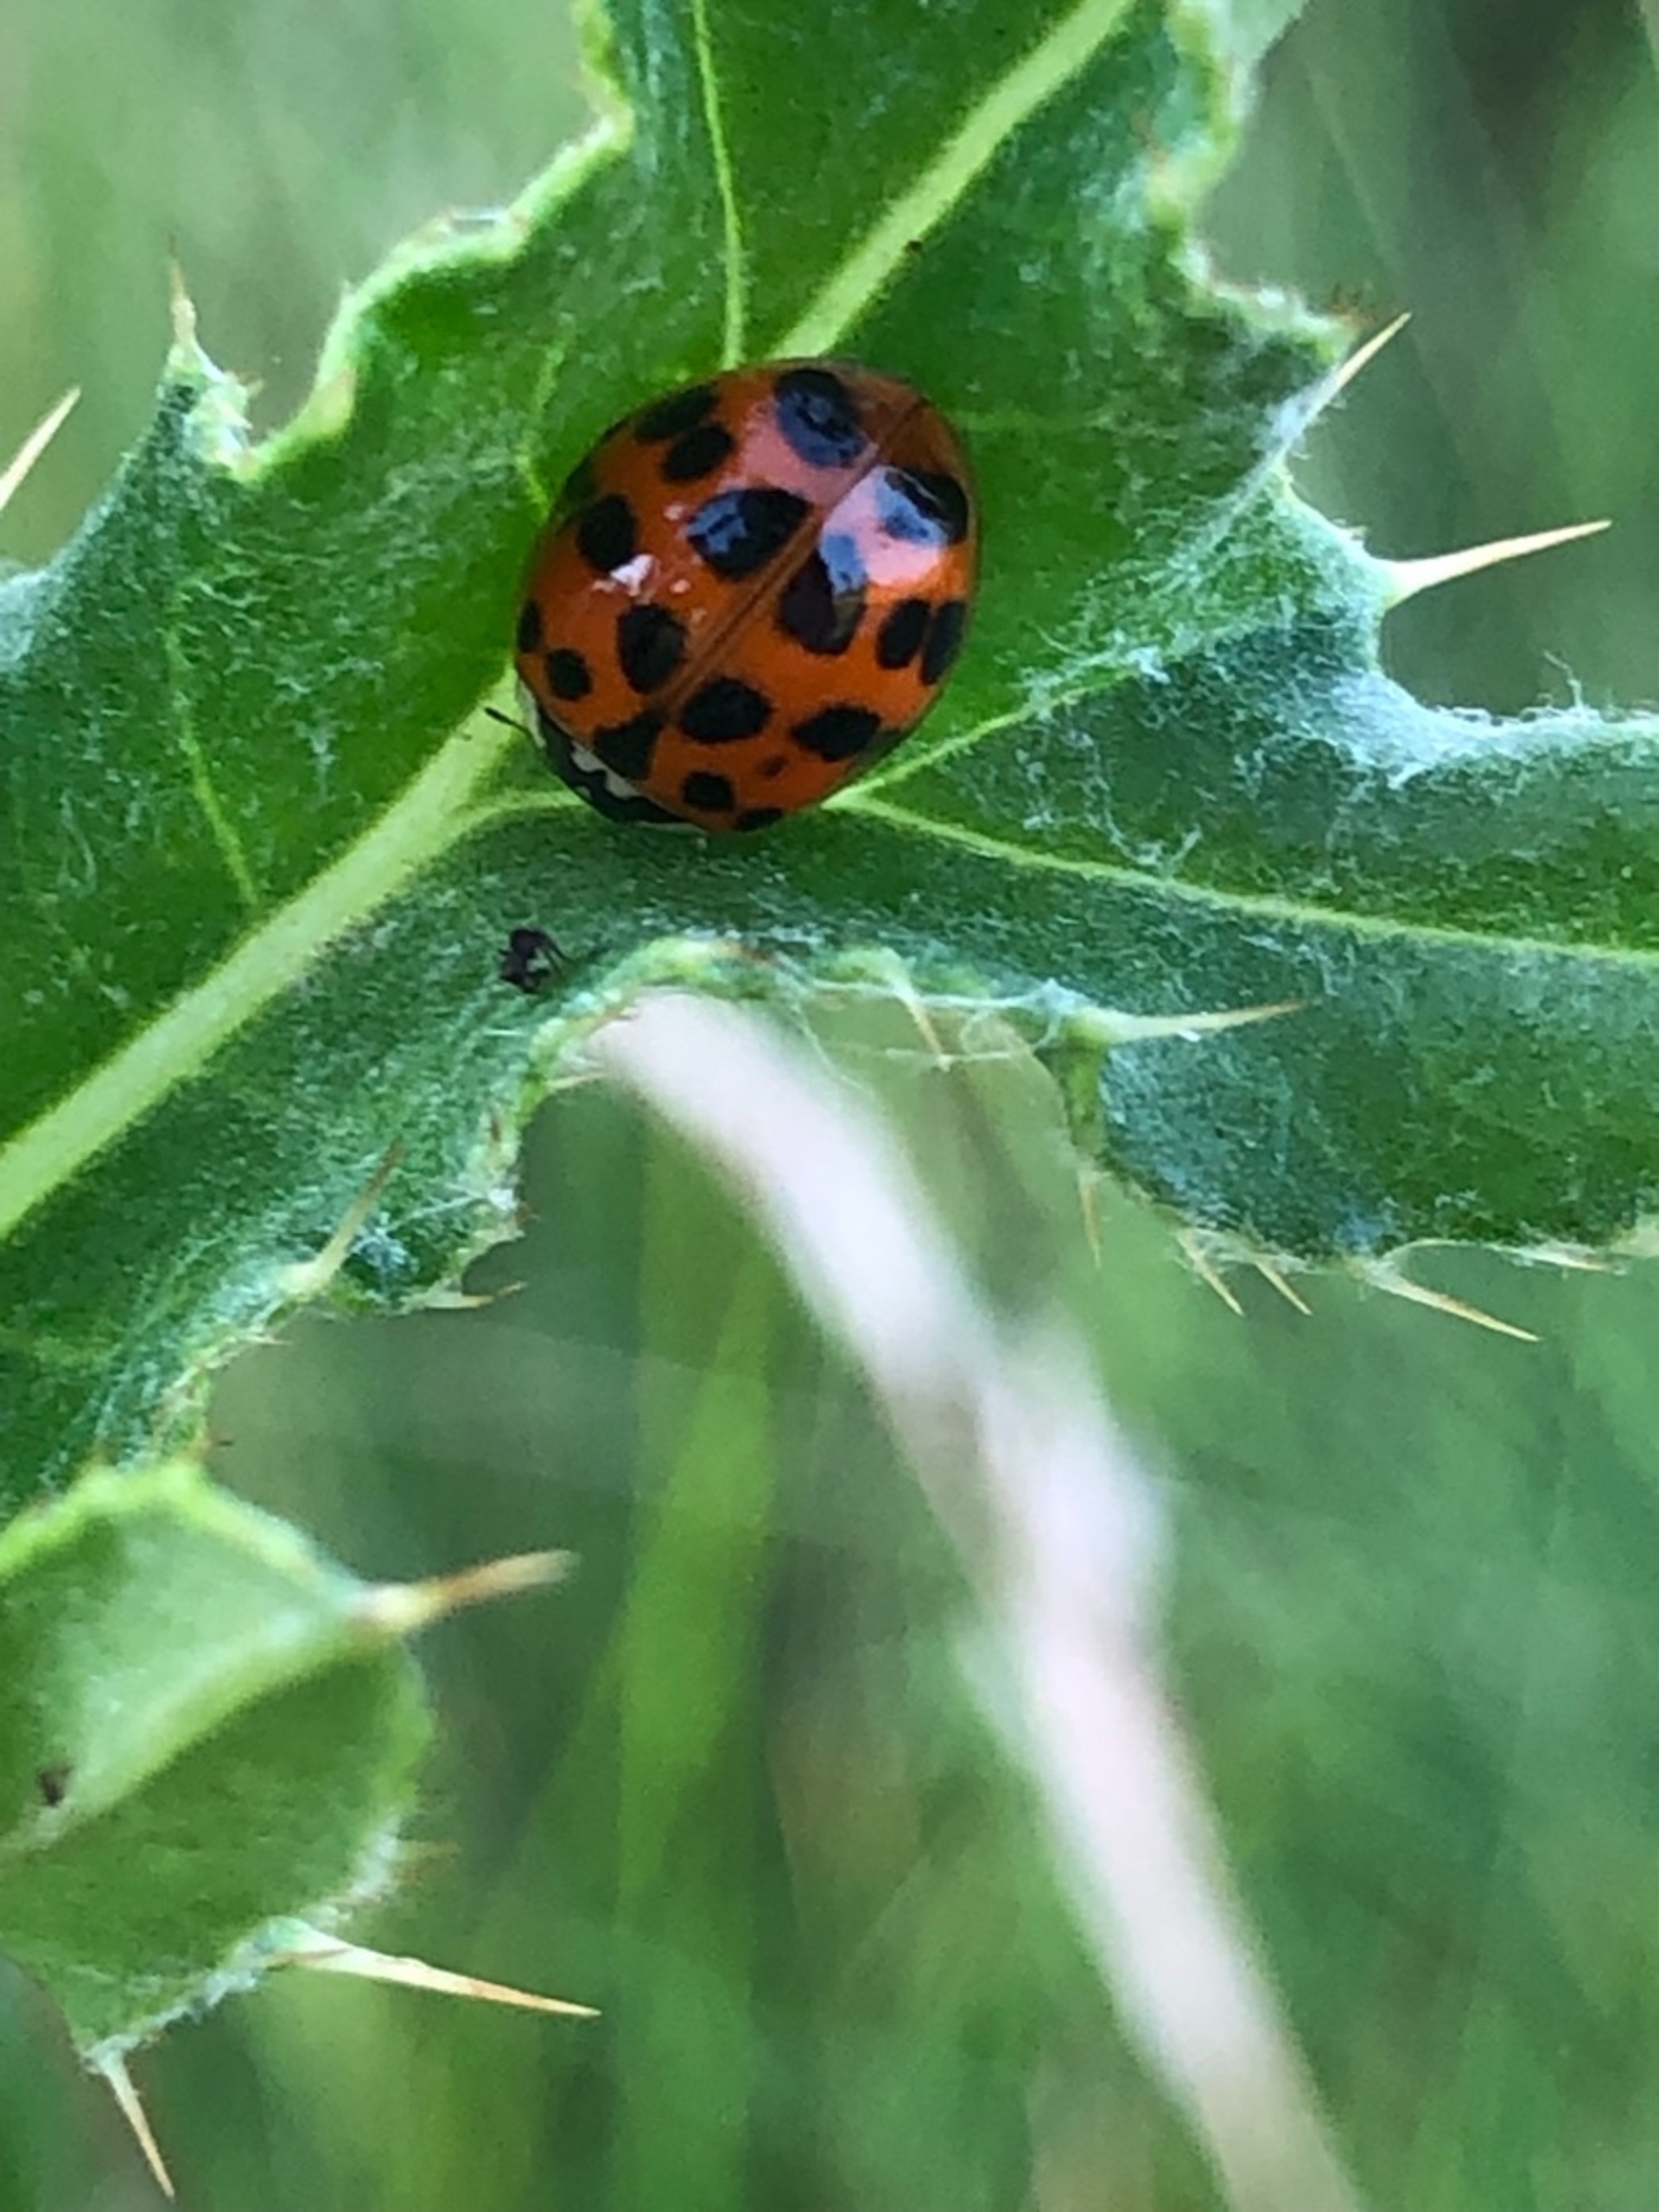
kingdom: Animalia
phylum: Arthropoda
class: Insecta
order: Coleoptera
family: Coccinellidae
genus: Harmonia
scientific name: Harmonia axyridis
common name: Harlekinmariehøne
